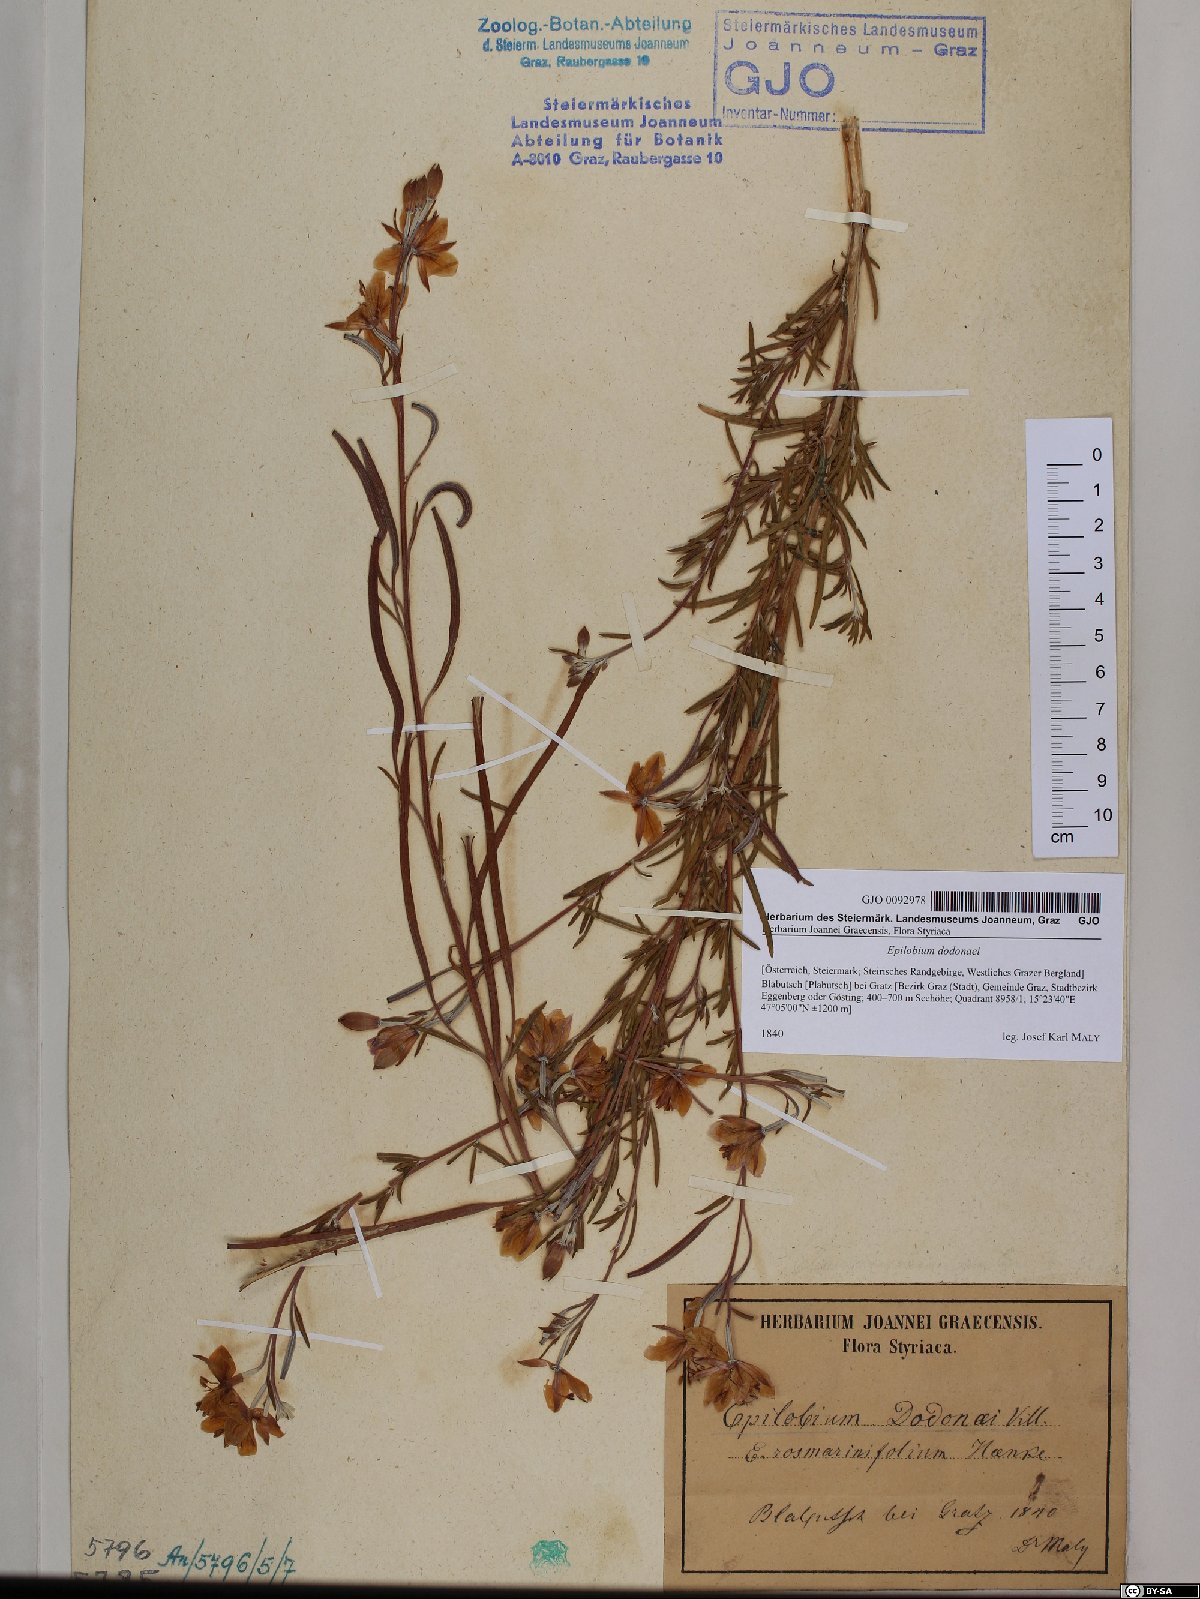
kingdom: Plantae
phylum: Tracheophyta
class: Magnoliopsida
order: Myrtales
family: Onagraceae
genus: Chamaenerion
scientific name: Chamaenerion dodonaei
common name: Rosemary-leaved willowherb
